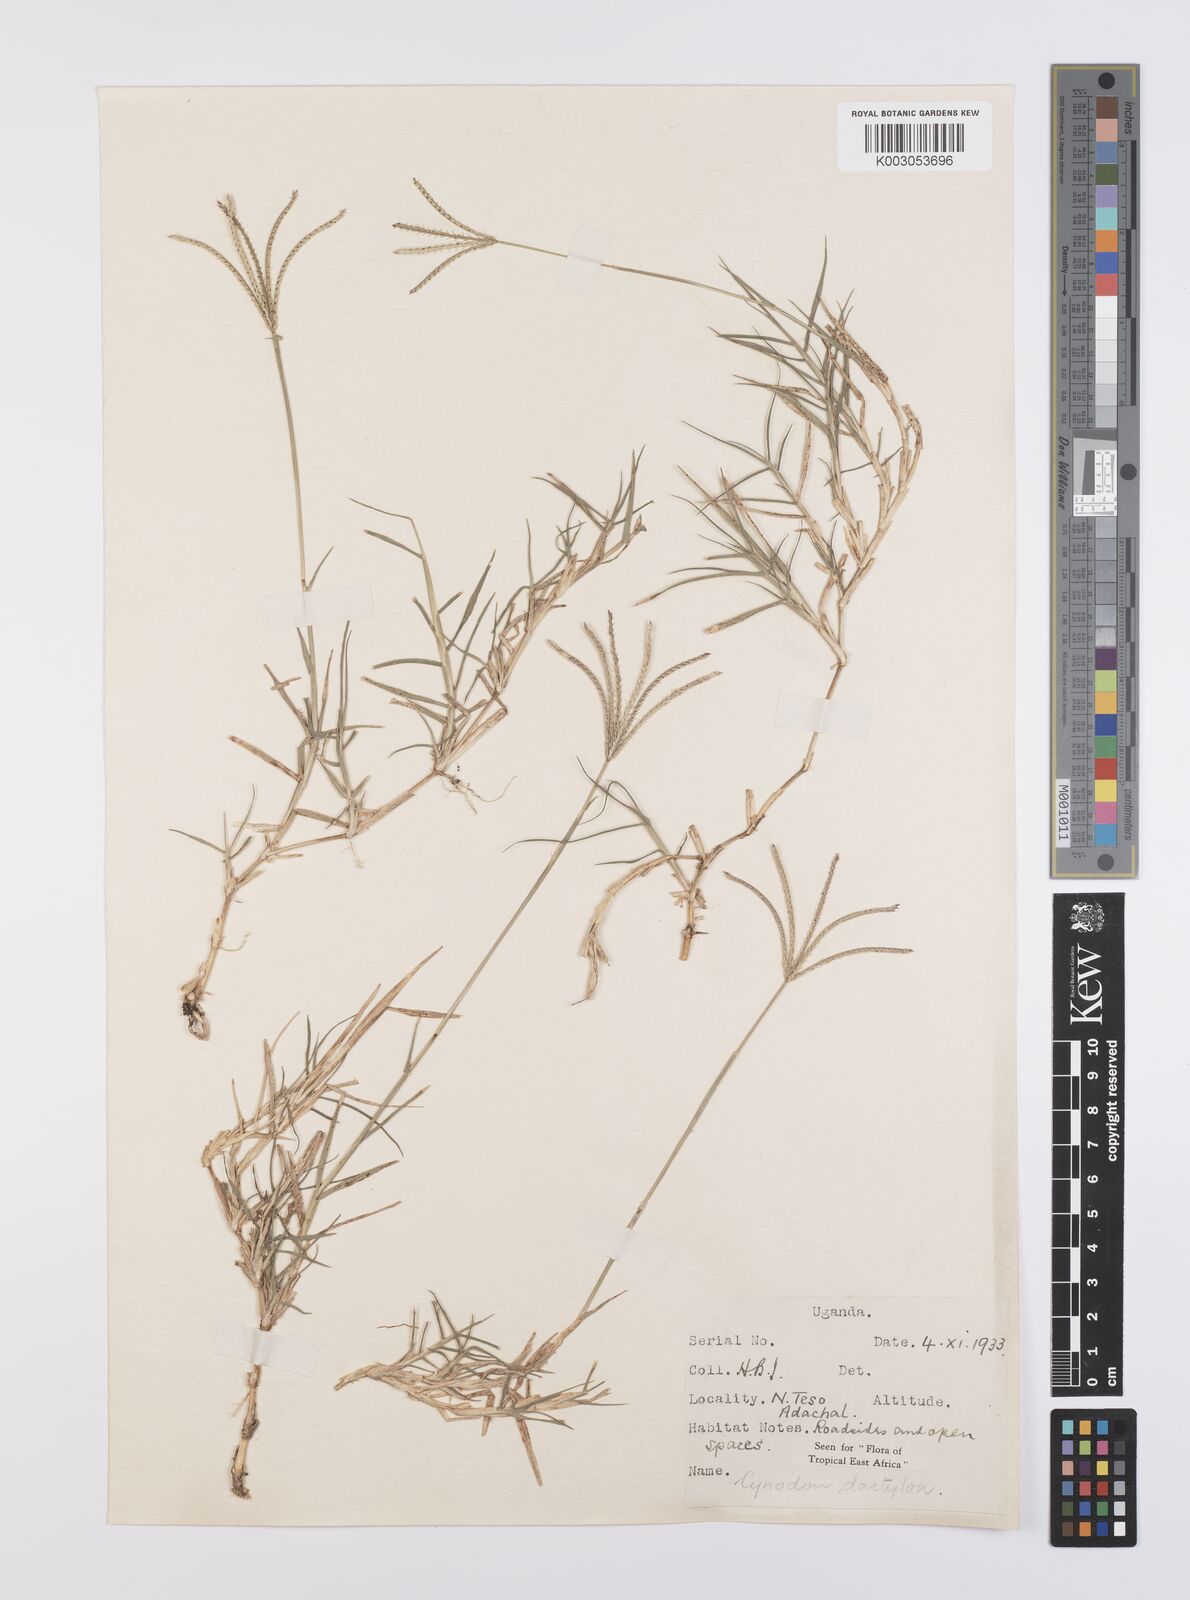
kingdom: Plantae
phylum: Tracheophyta
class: Liliopsida
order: Poales
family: Poaceae
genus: Cynodon
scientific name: Cynodon dactylon
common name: Bermuda grass
